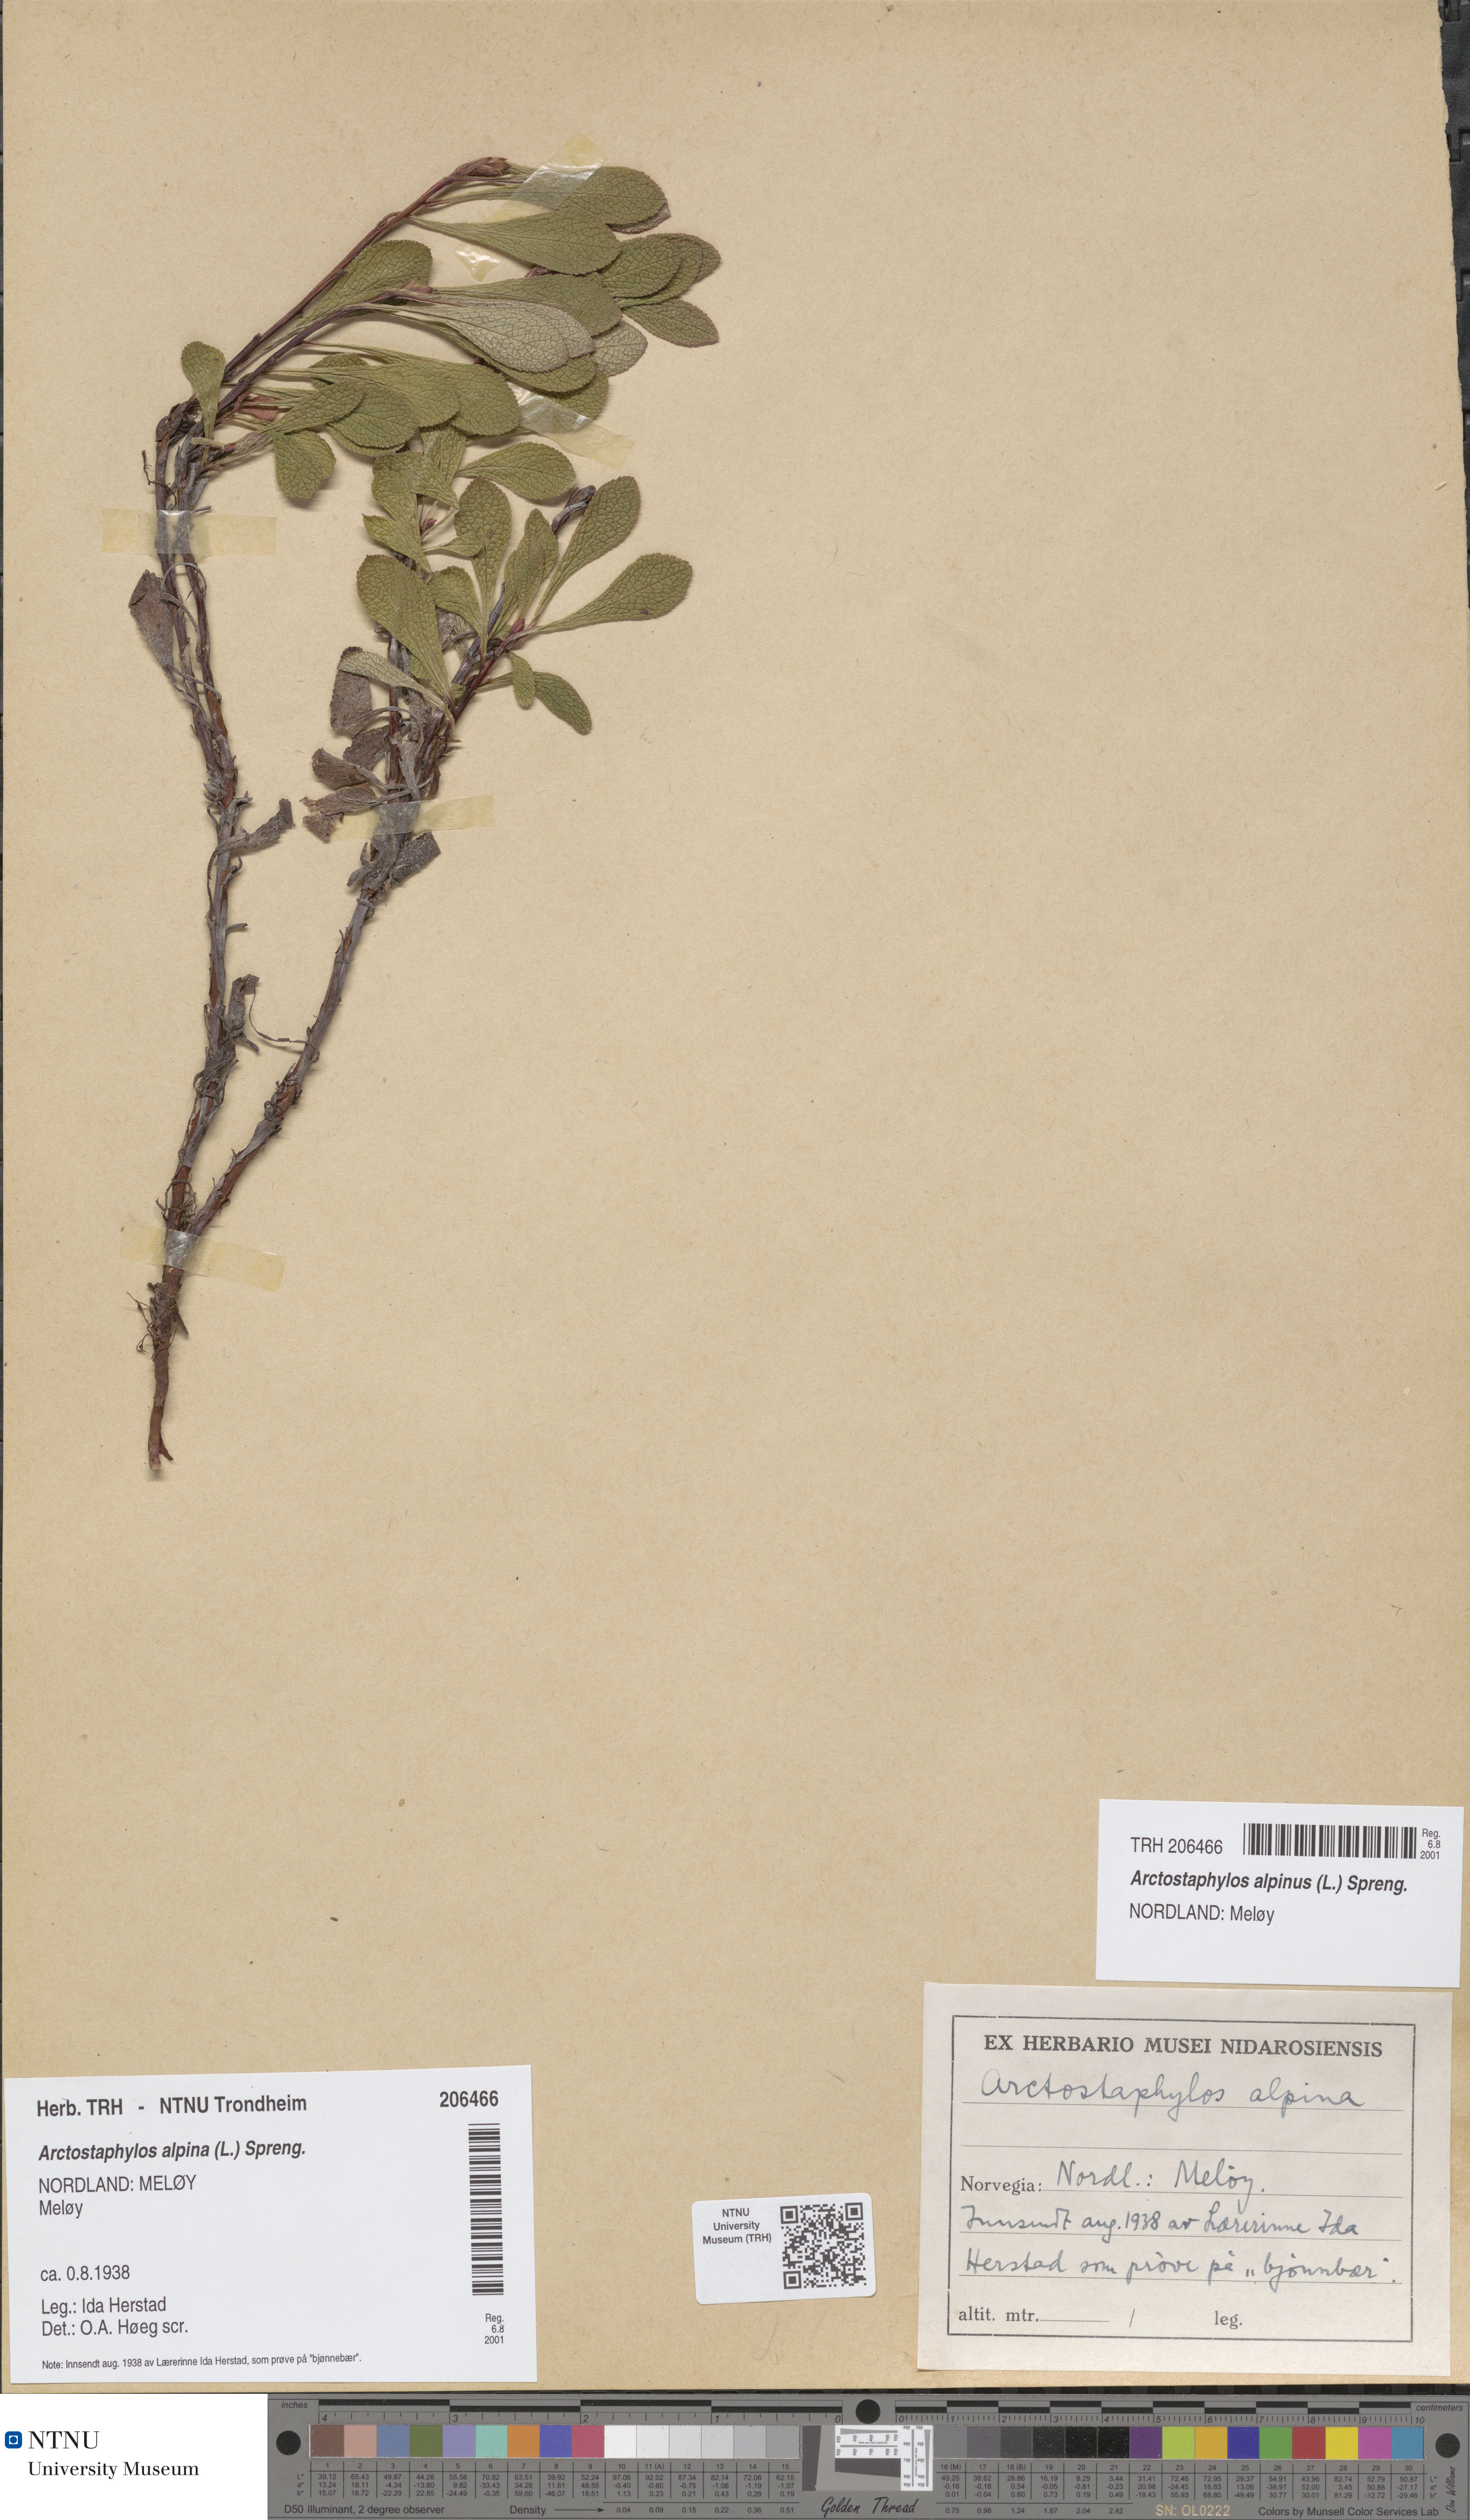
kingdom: Plantae
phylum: Tracheophyta
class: Magnoliopsida
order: Ericales
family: Ericaceae
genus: Arctostaphylos
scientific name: Arctostaphylos alpinus
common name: Alpine bearberry
